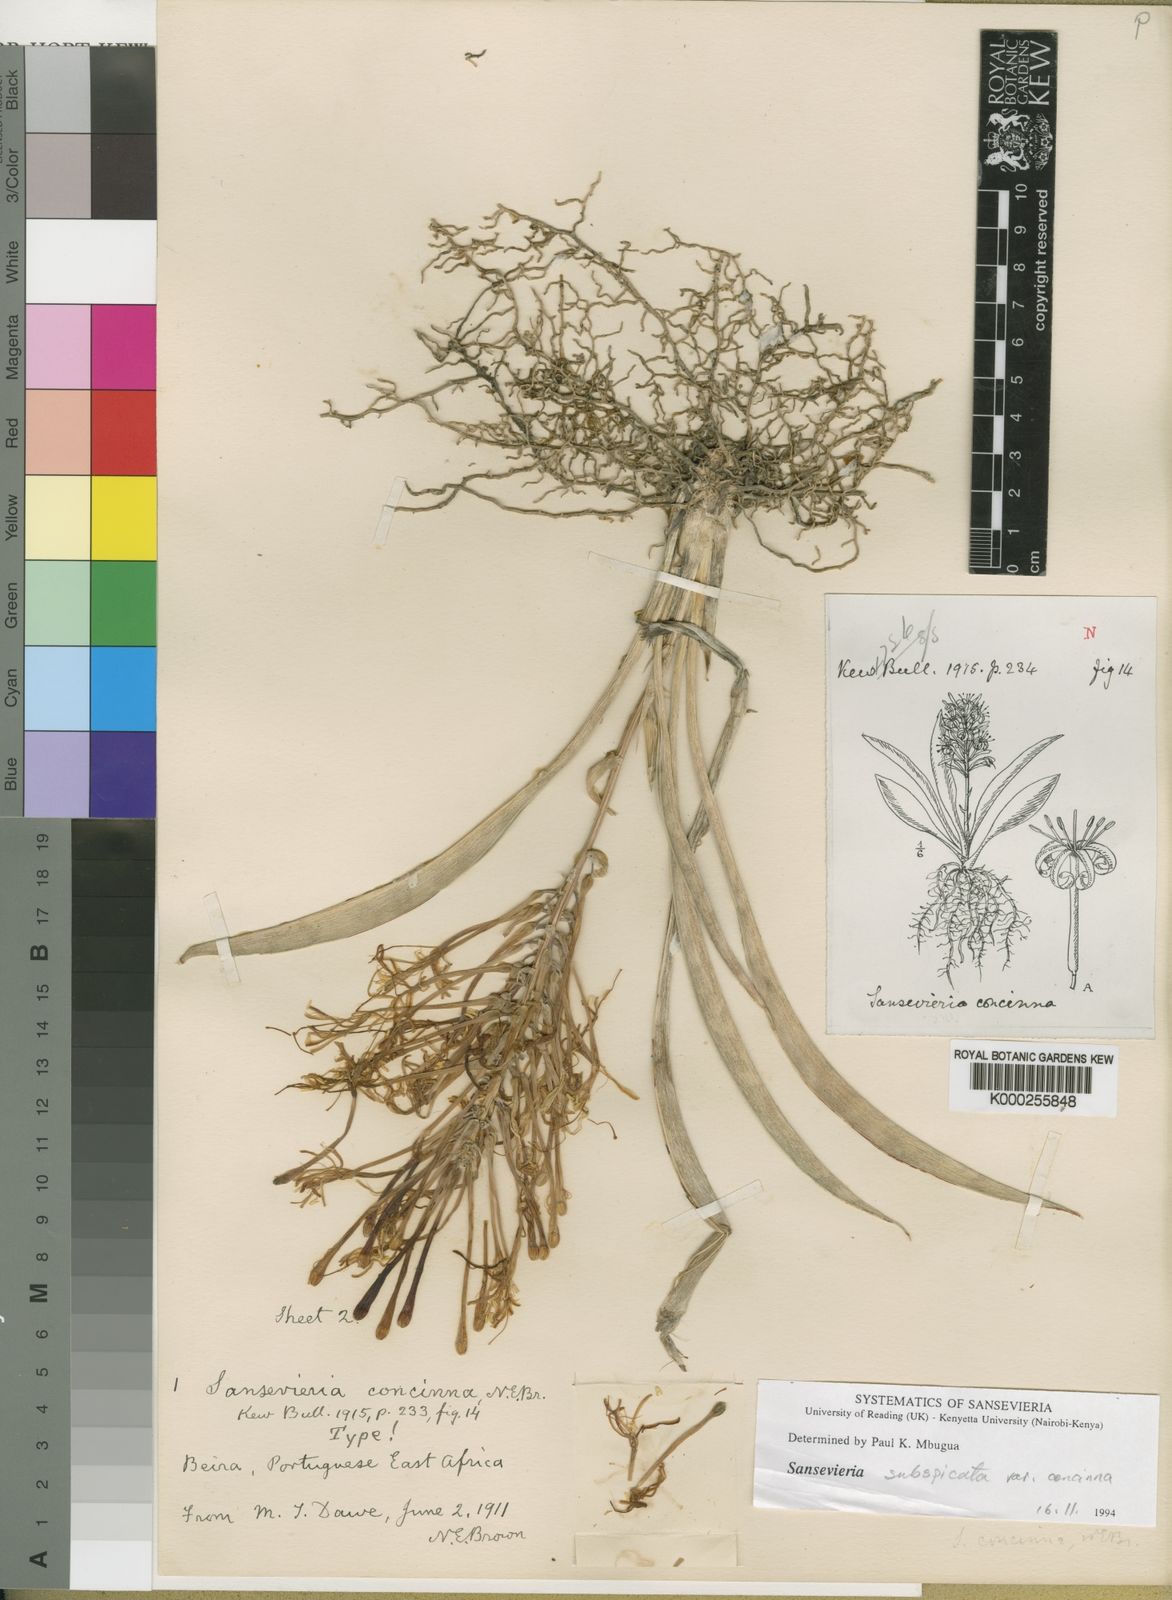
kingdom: Plantae
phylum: Tracheophyta
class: Liliopsida
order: Asparagales
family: Asparagaceae
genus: Dracaena
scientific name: Dracaena spathulata
